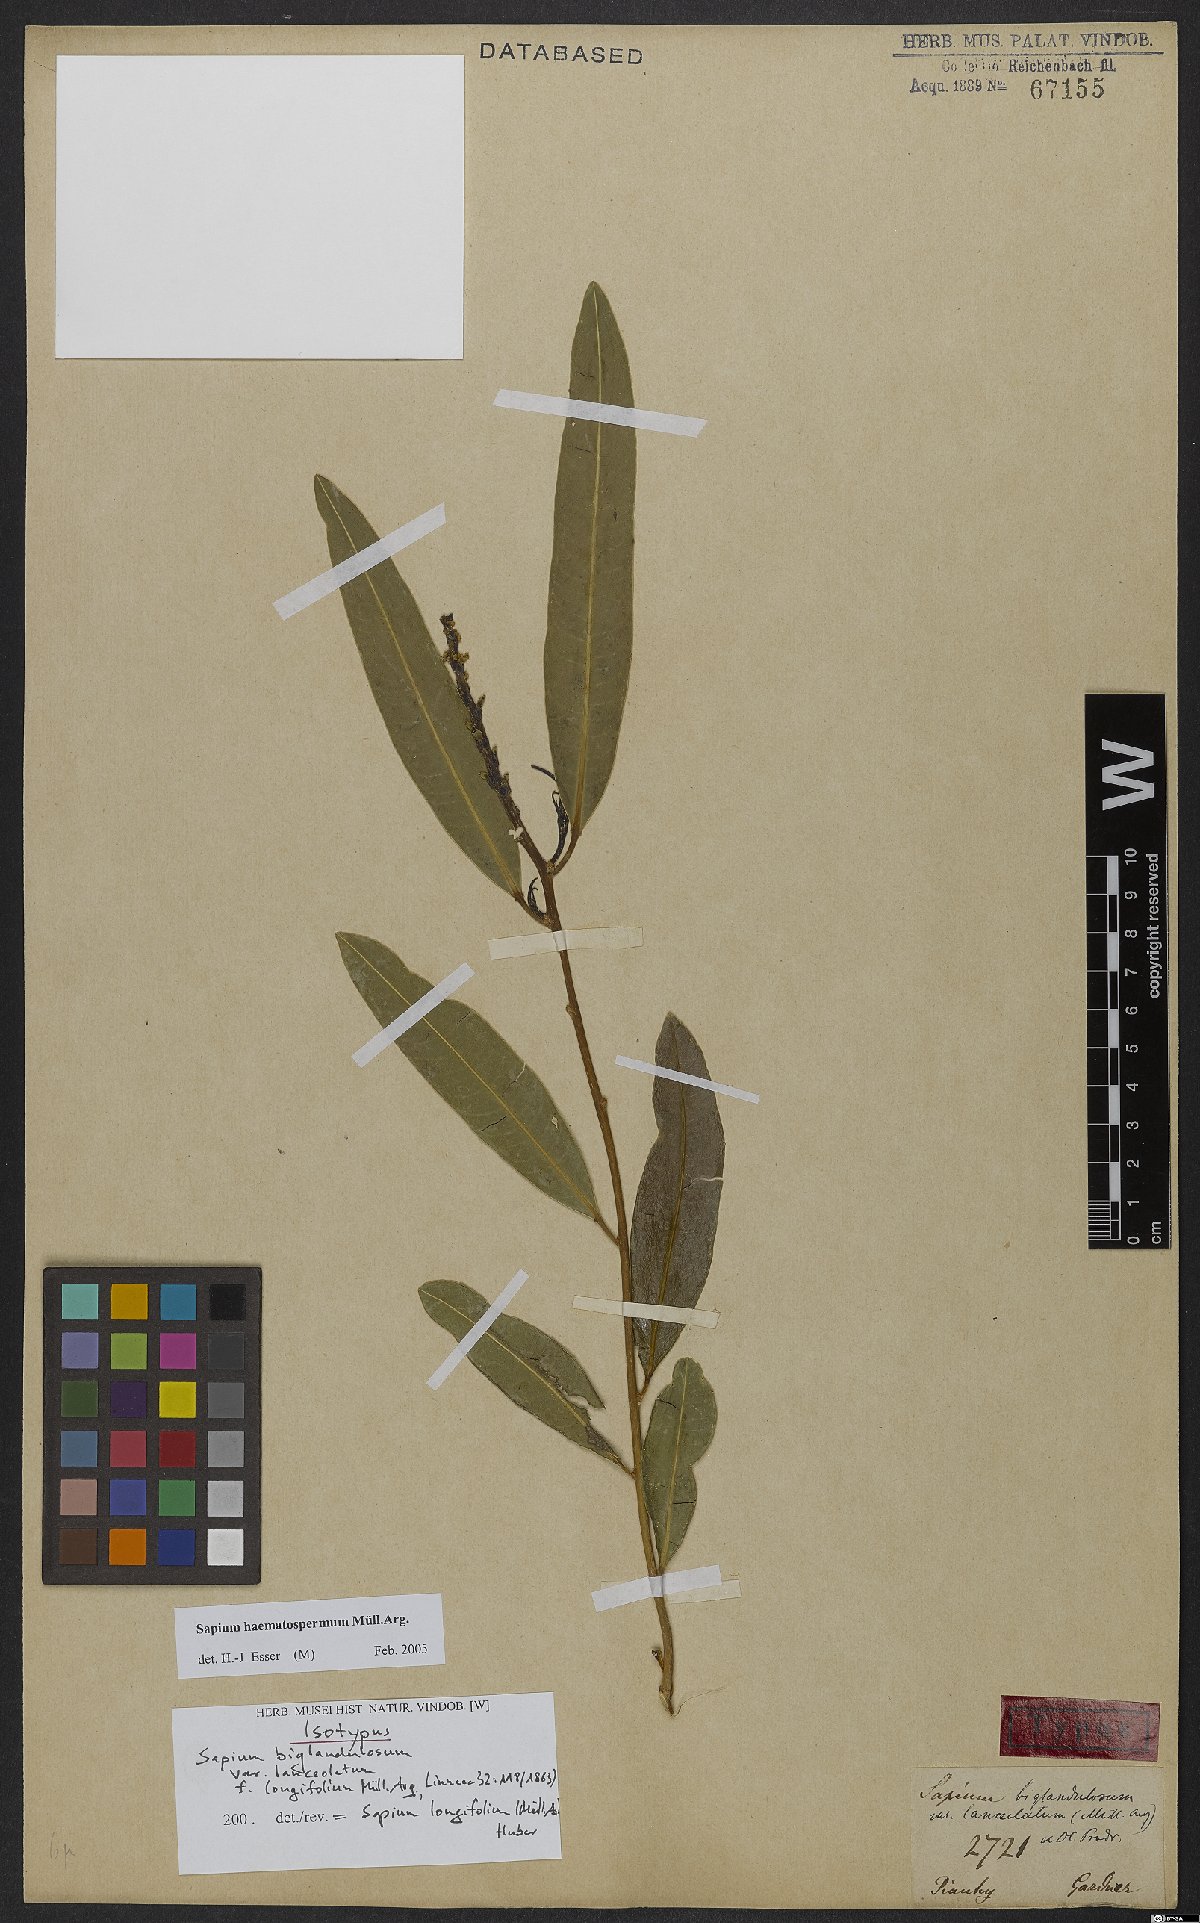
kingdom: Plantae
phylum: Tracheophyta
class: Magnoliopsida
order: Malpighiales
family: Euphorbiaceae
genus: Sapium
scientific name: Sapium haematospermum
